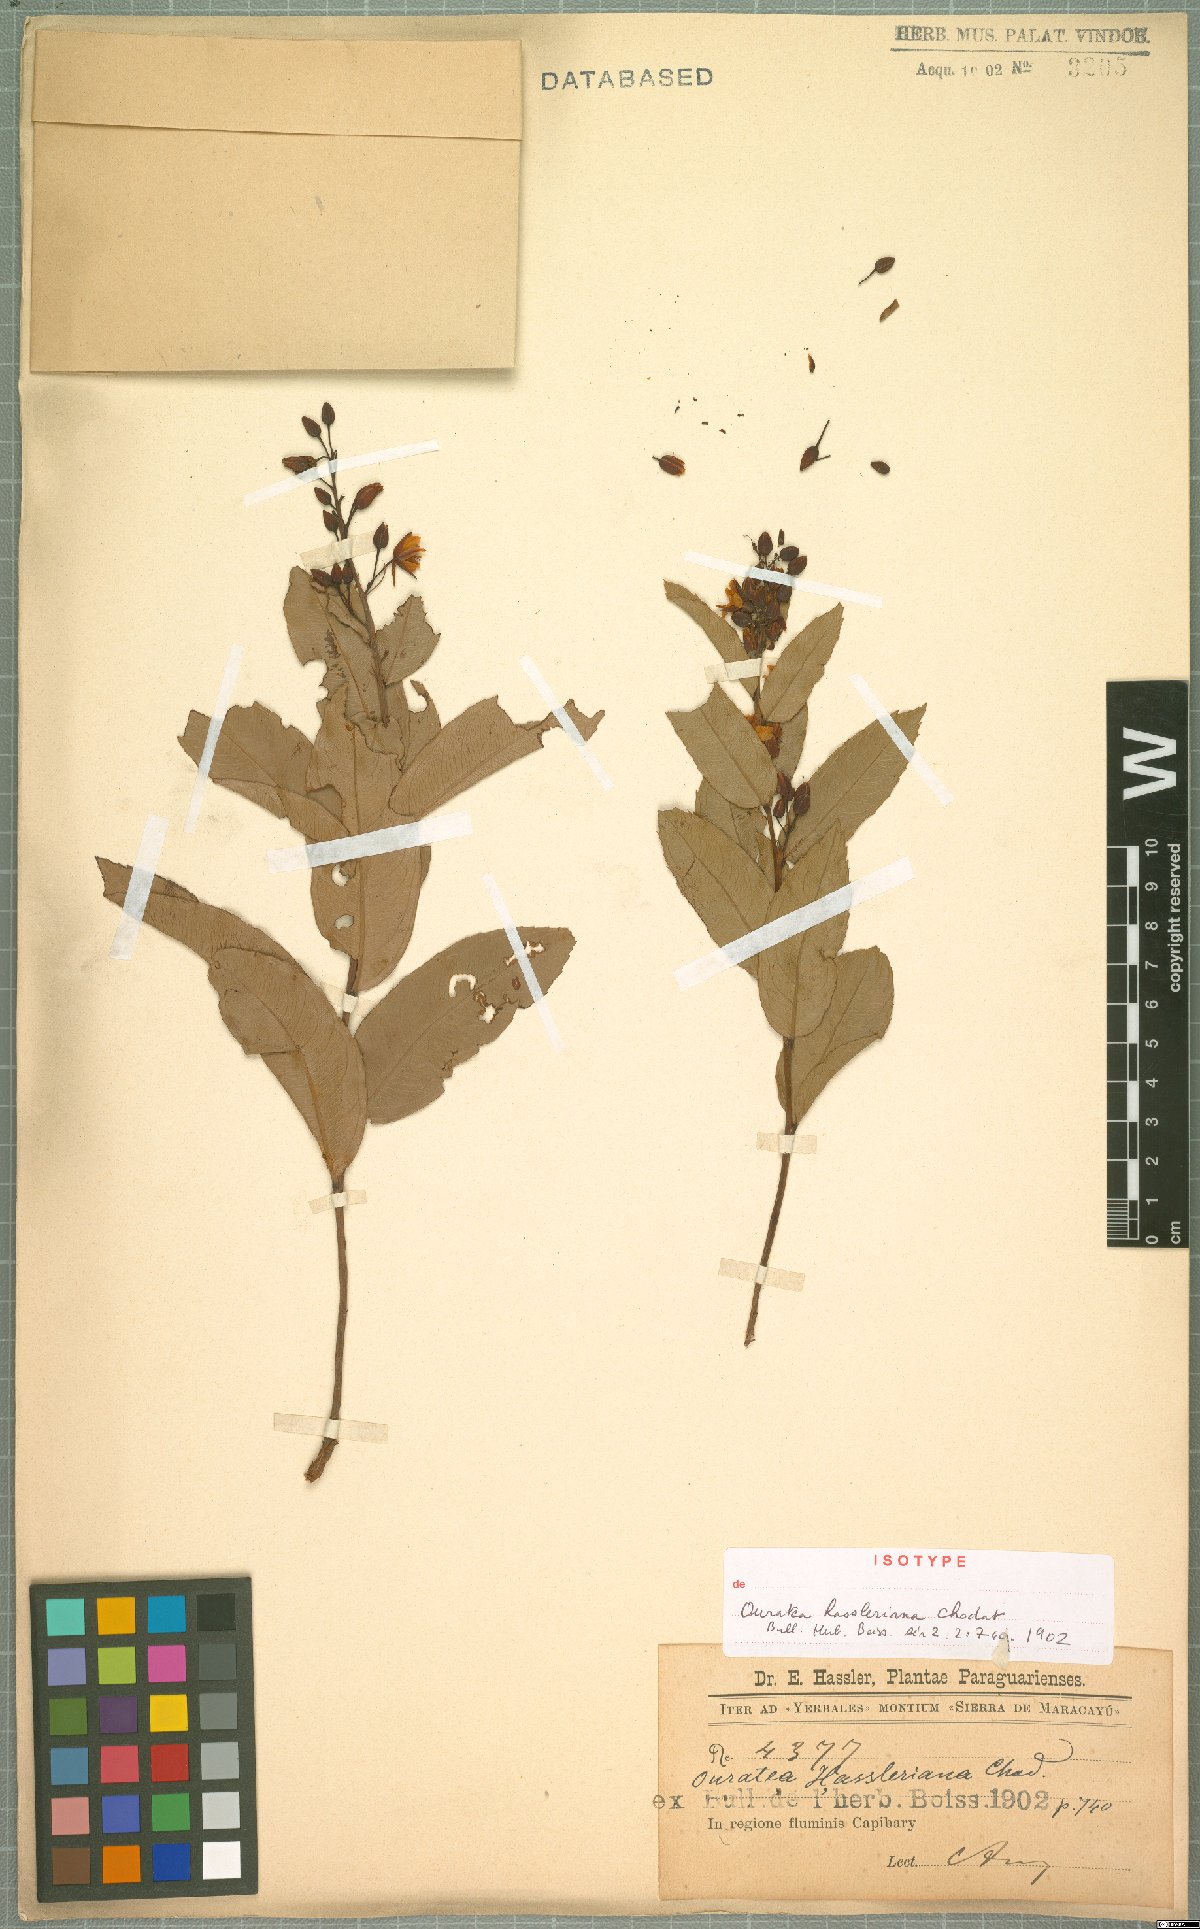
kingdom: Plantae
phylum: Tracheophyta
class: Magnoliopsida
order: Malpighiales
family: Ochnaceae
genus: Ouratea
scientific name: Ouratea hassleriana
